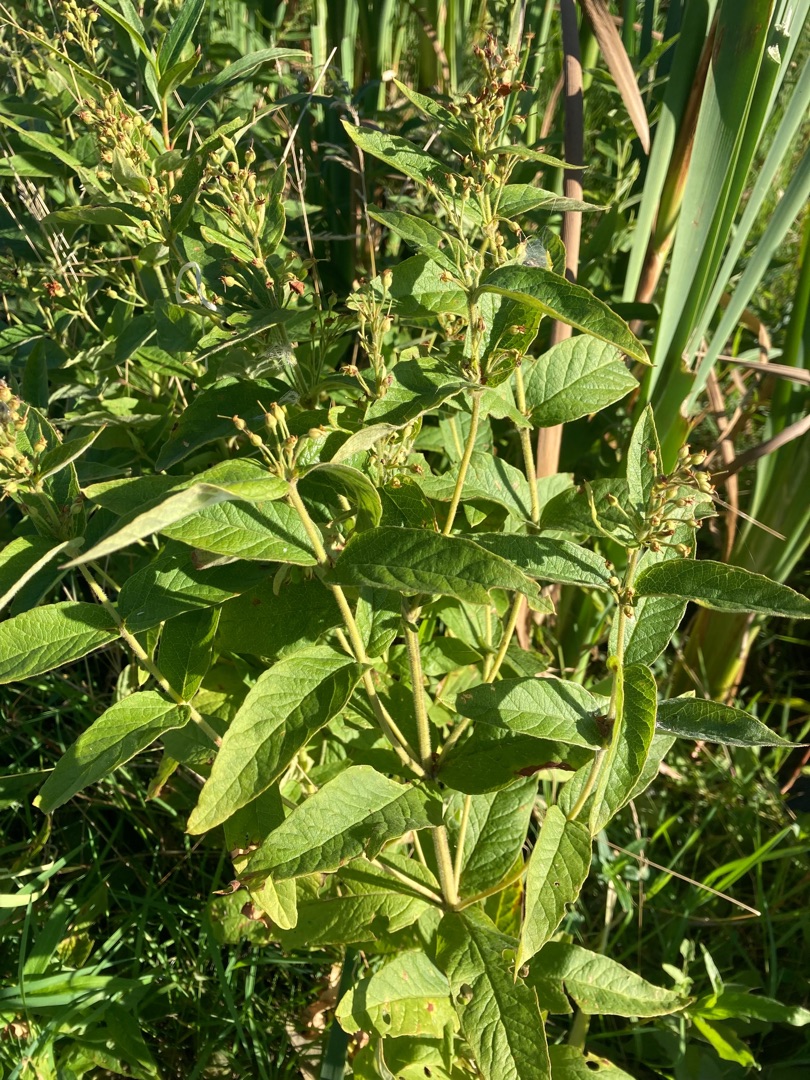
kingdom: Plantae
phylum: Tracheophyta
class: Magnoliopsida
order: Ericales
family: Primulaceae
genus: Lysimachia
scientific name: Lysimachia vulgaris
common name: Almindelig fredløs
